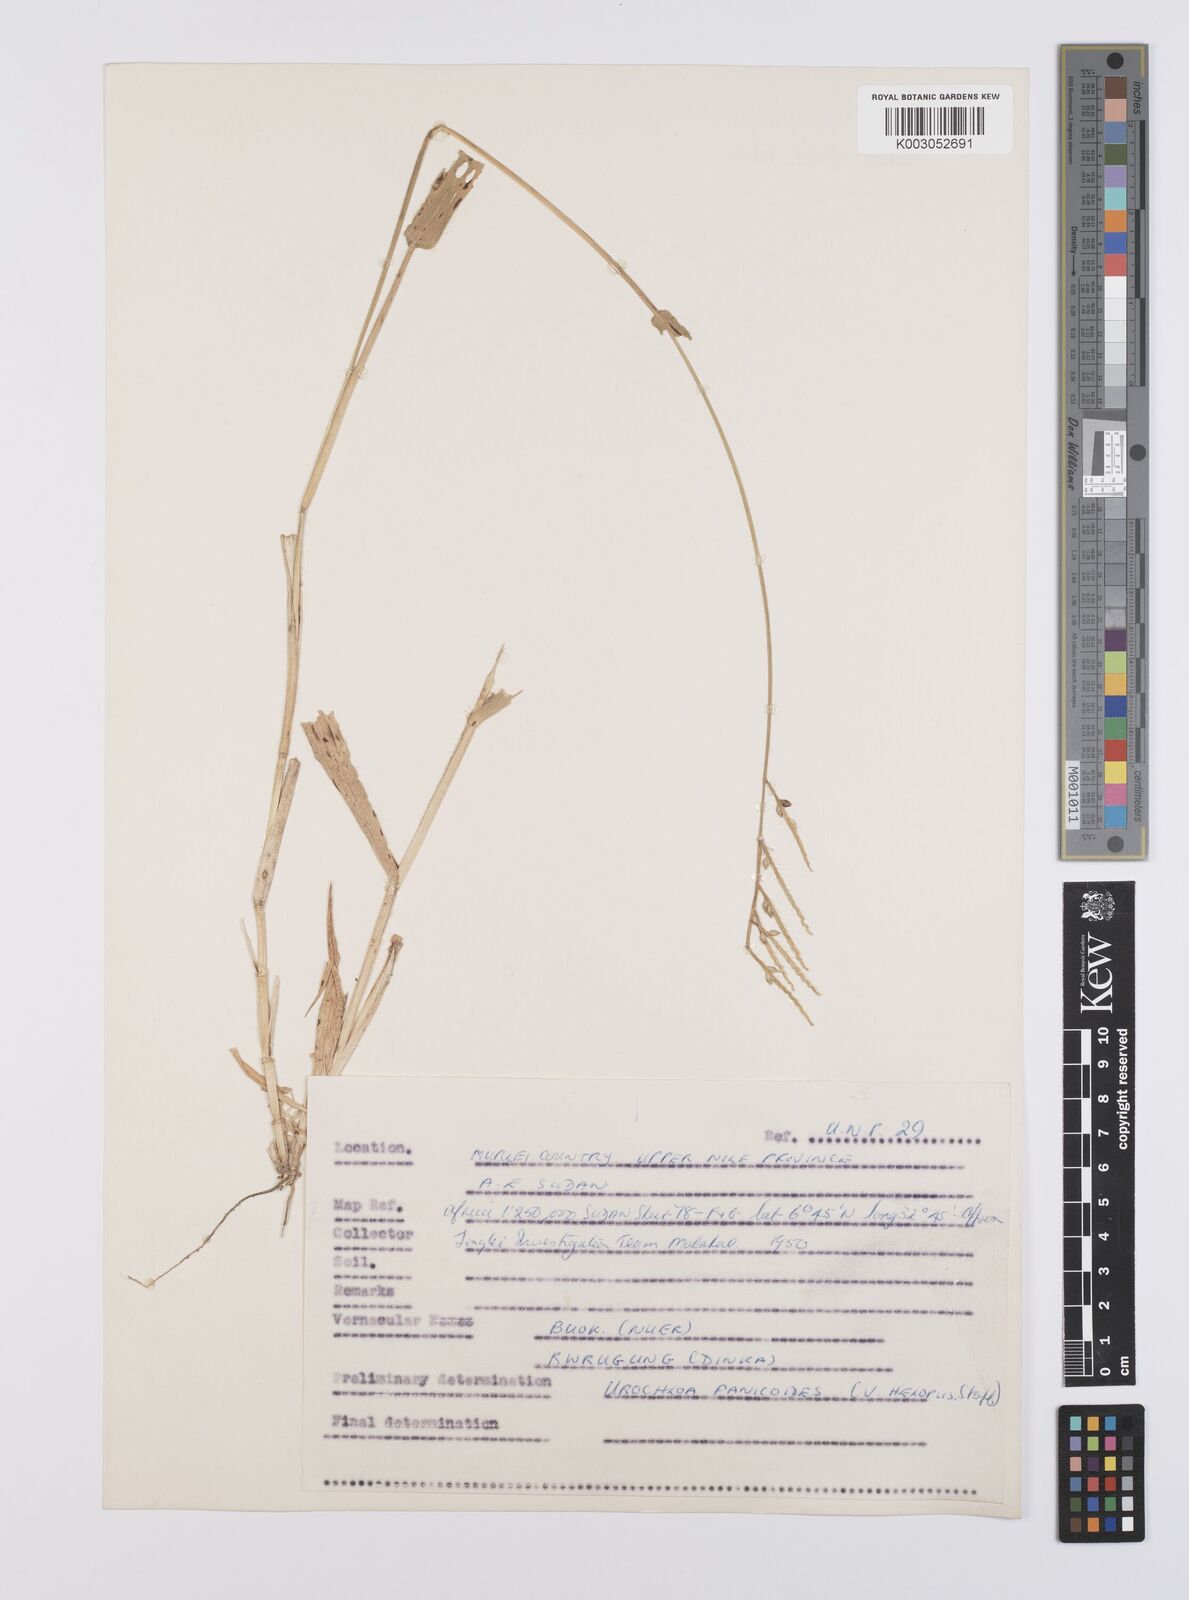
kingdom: Plantae
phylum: Tracheophyta
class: Liliopsida
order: Poales
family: Poaceae
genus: Urochloa
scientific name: Urochloa panicoides
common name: Sharp-flowered signal-grass
